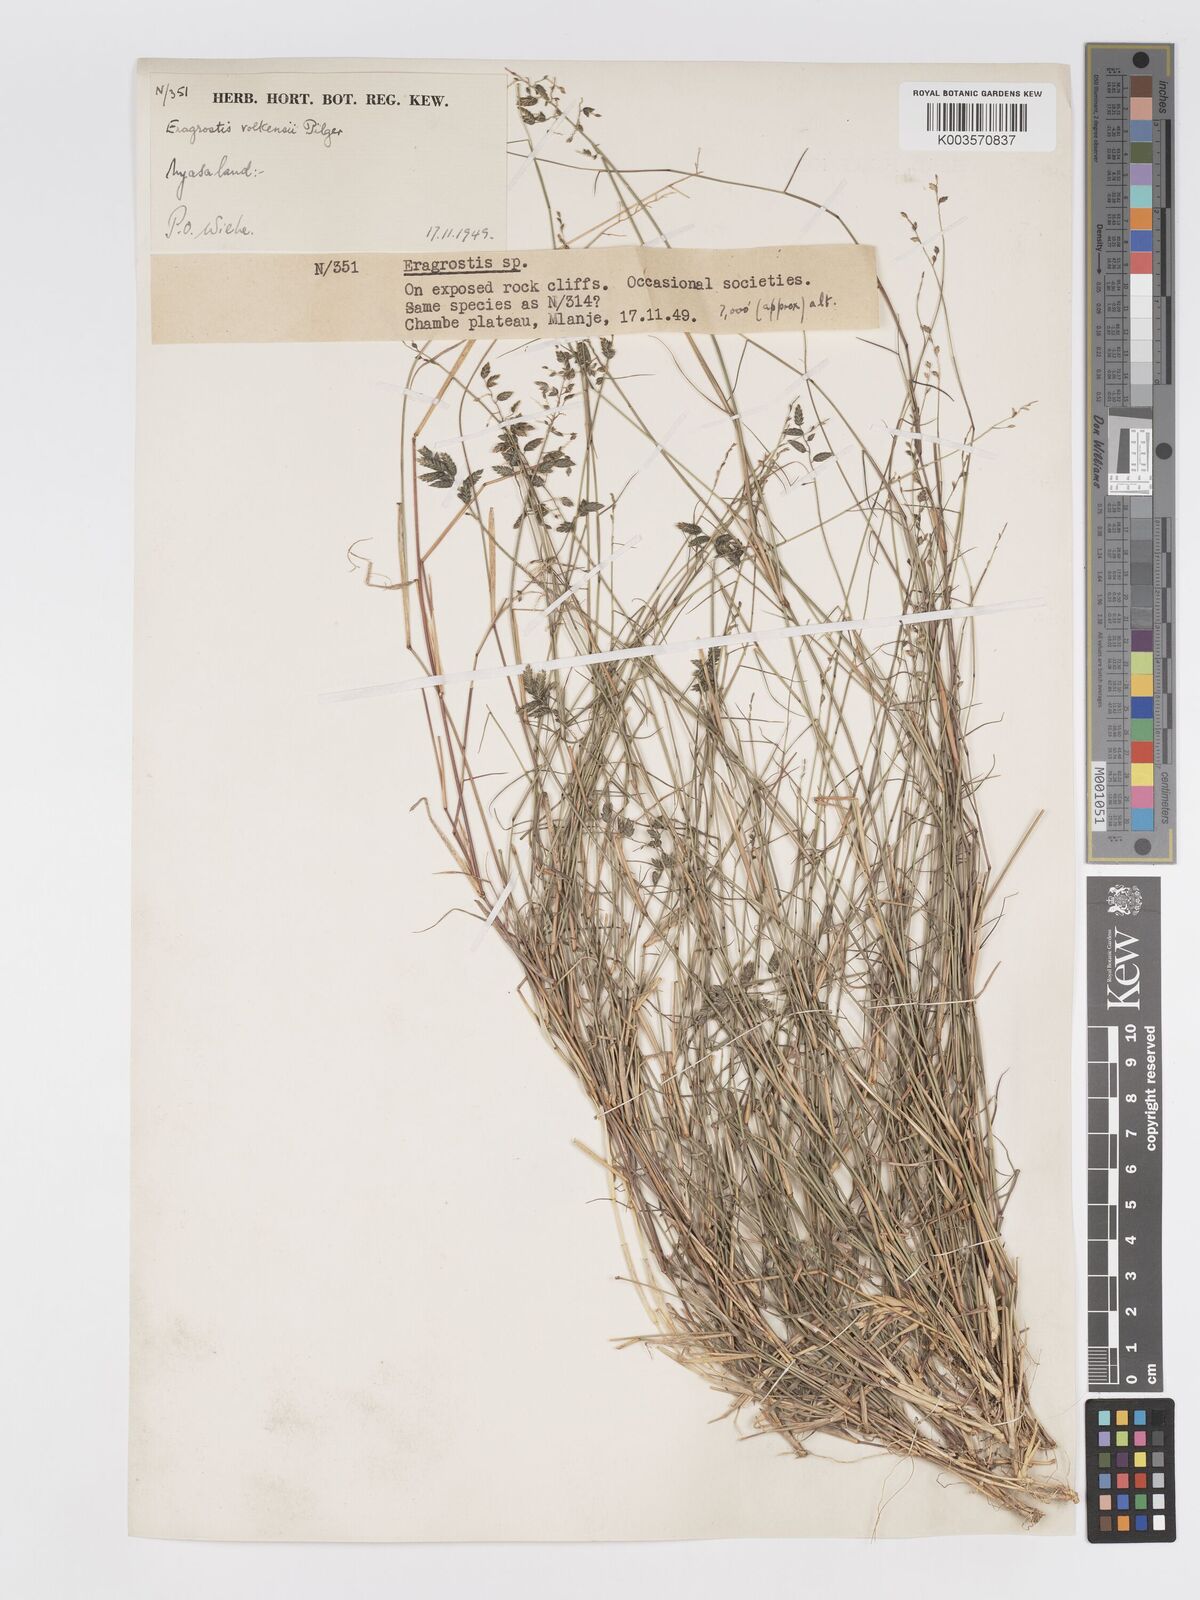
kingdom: Plantae
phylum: Tracheophyta
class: Liliopsida
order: Poales
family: Poaceae
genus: Eragrostis
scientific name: Eragrostis volkensii
